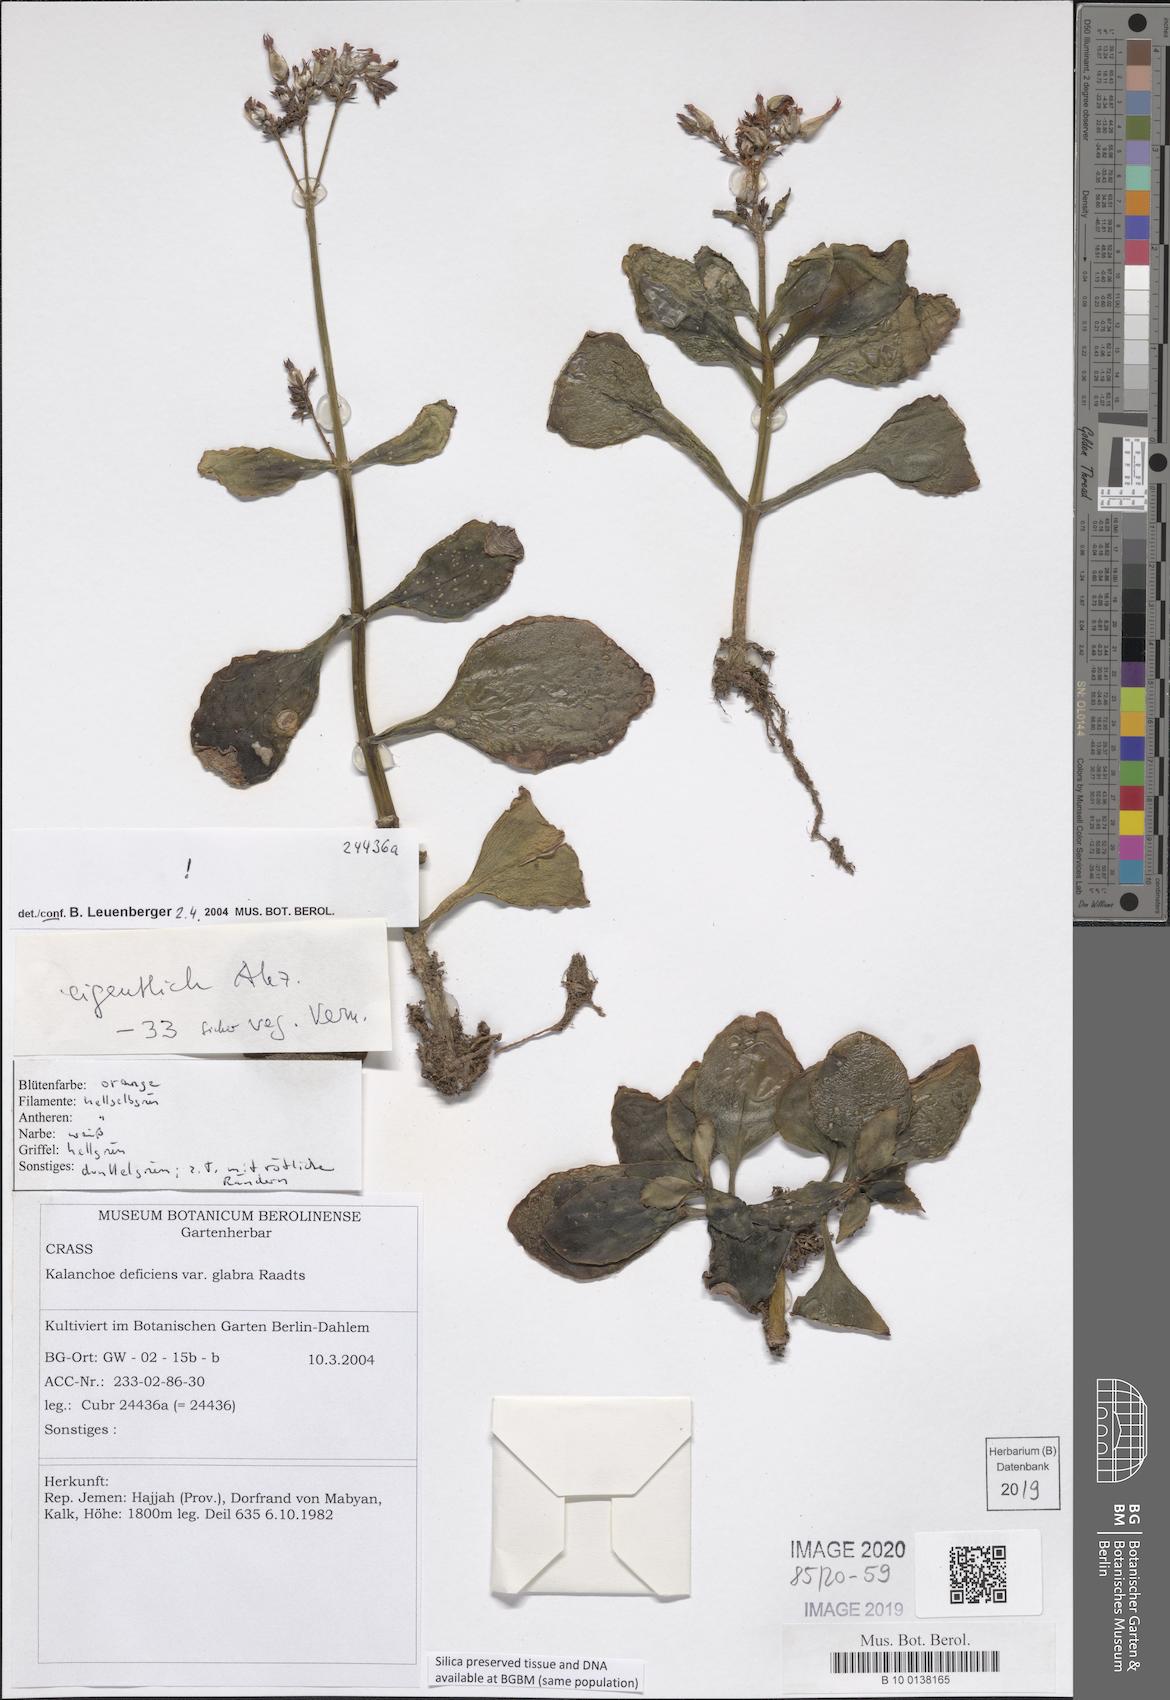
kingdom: Plantae
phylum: Tracheophyta
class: Magnoliopsida
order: Saxifragales
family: Crassulaceae
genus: Kalanchoe
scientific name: Kalanchoe deficiens
